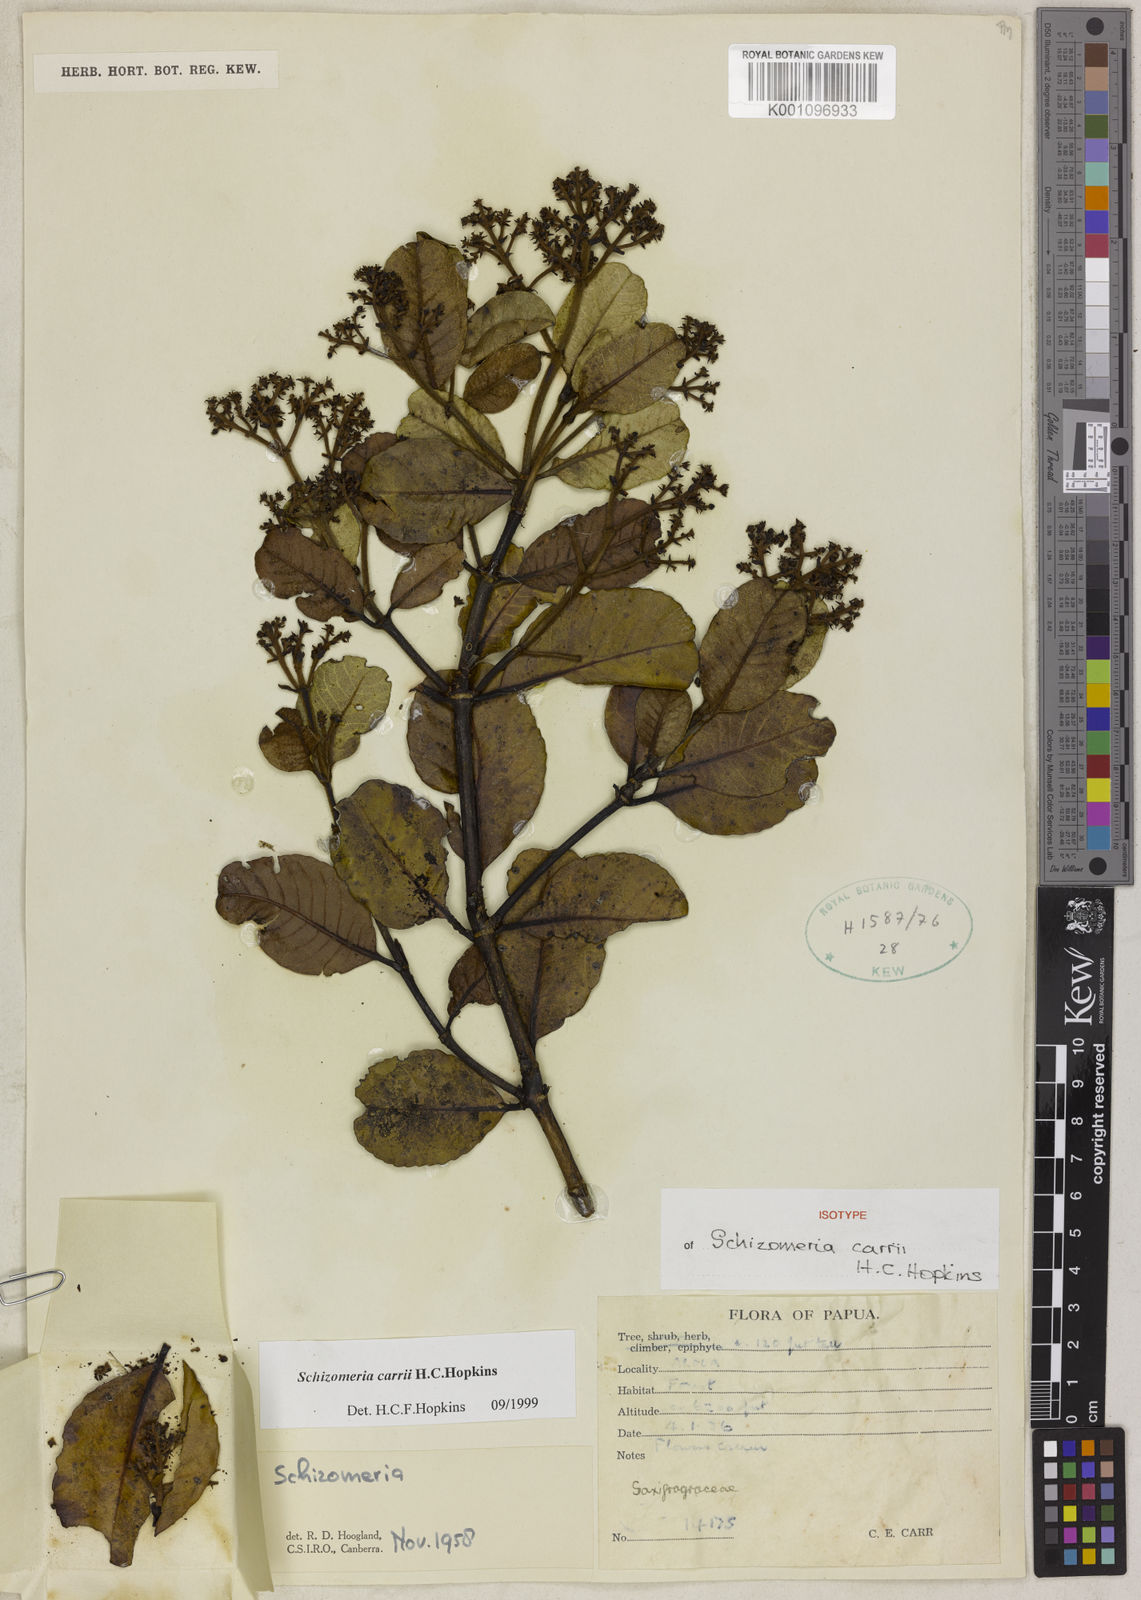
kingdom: Plantae
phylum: Tracheophyta
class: Magnoliopsida
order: Oxalidales
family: Cunoniaceae
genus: Schizomeria
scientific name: Schizomeria carrii
